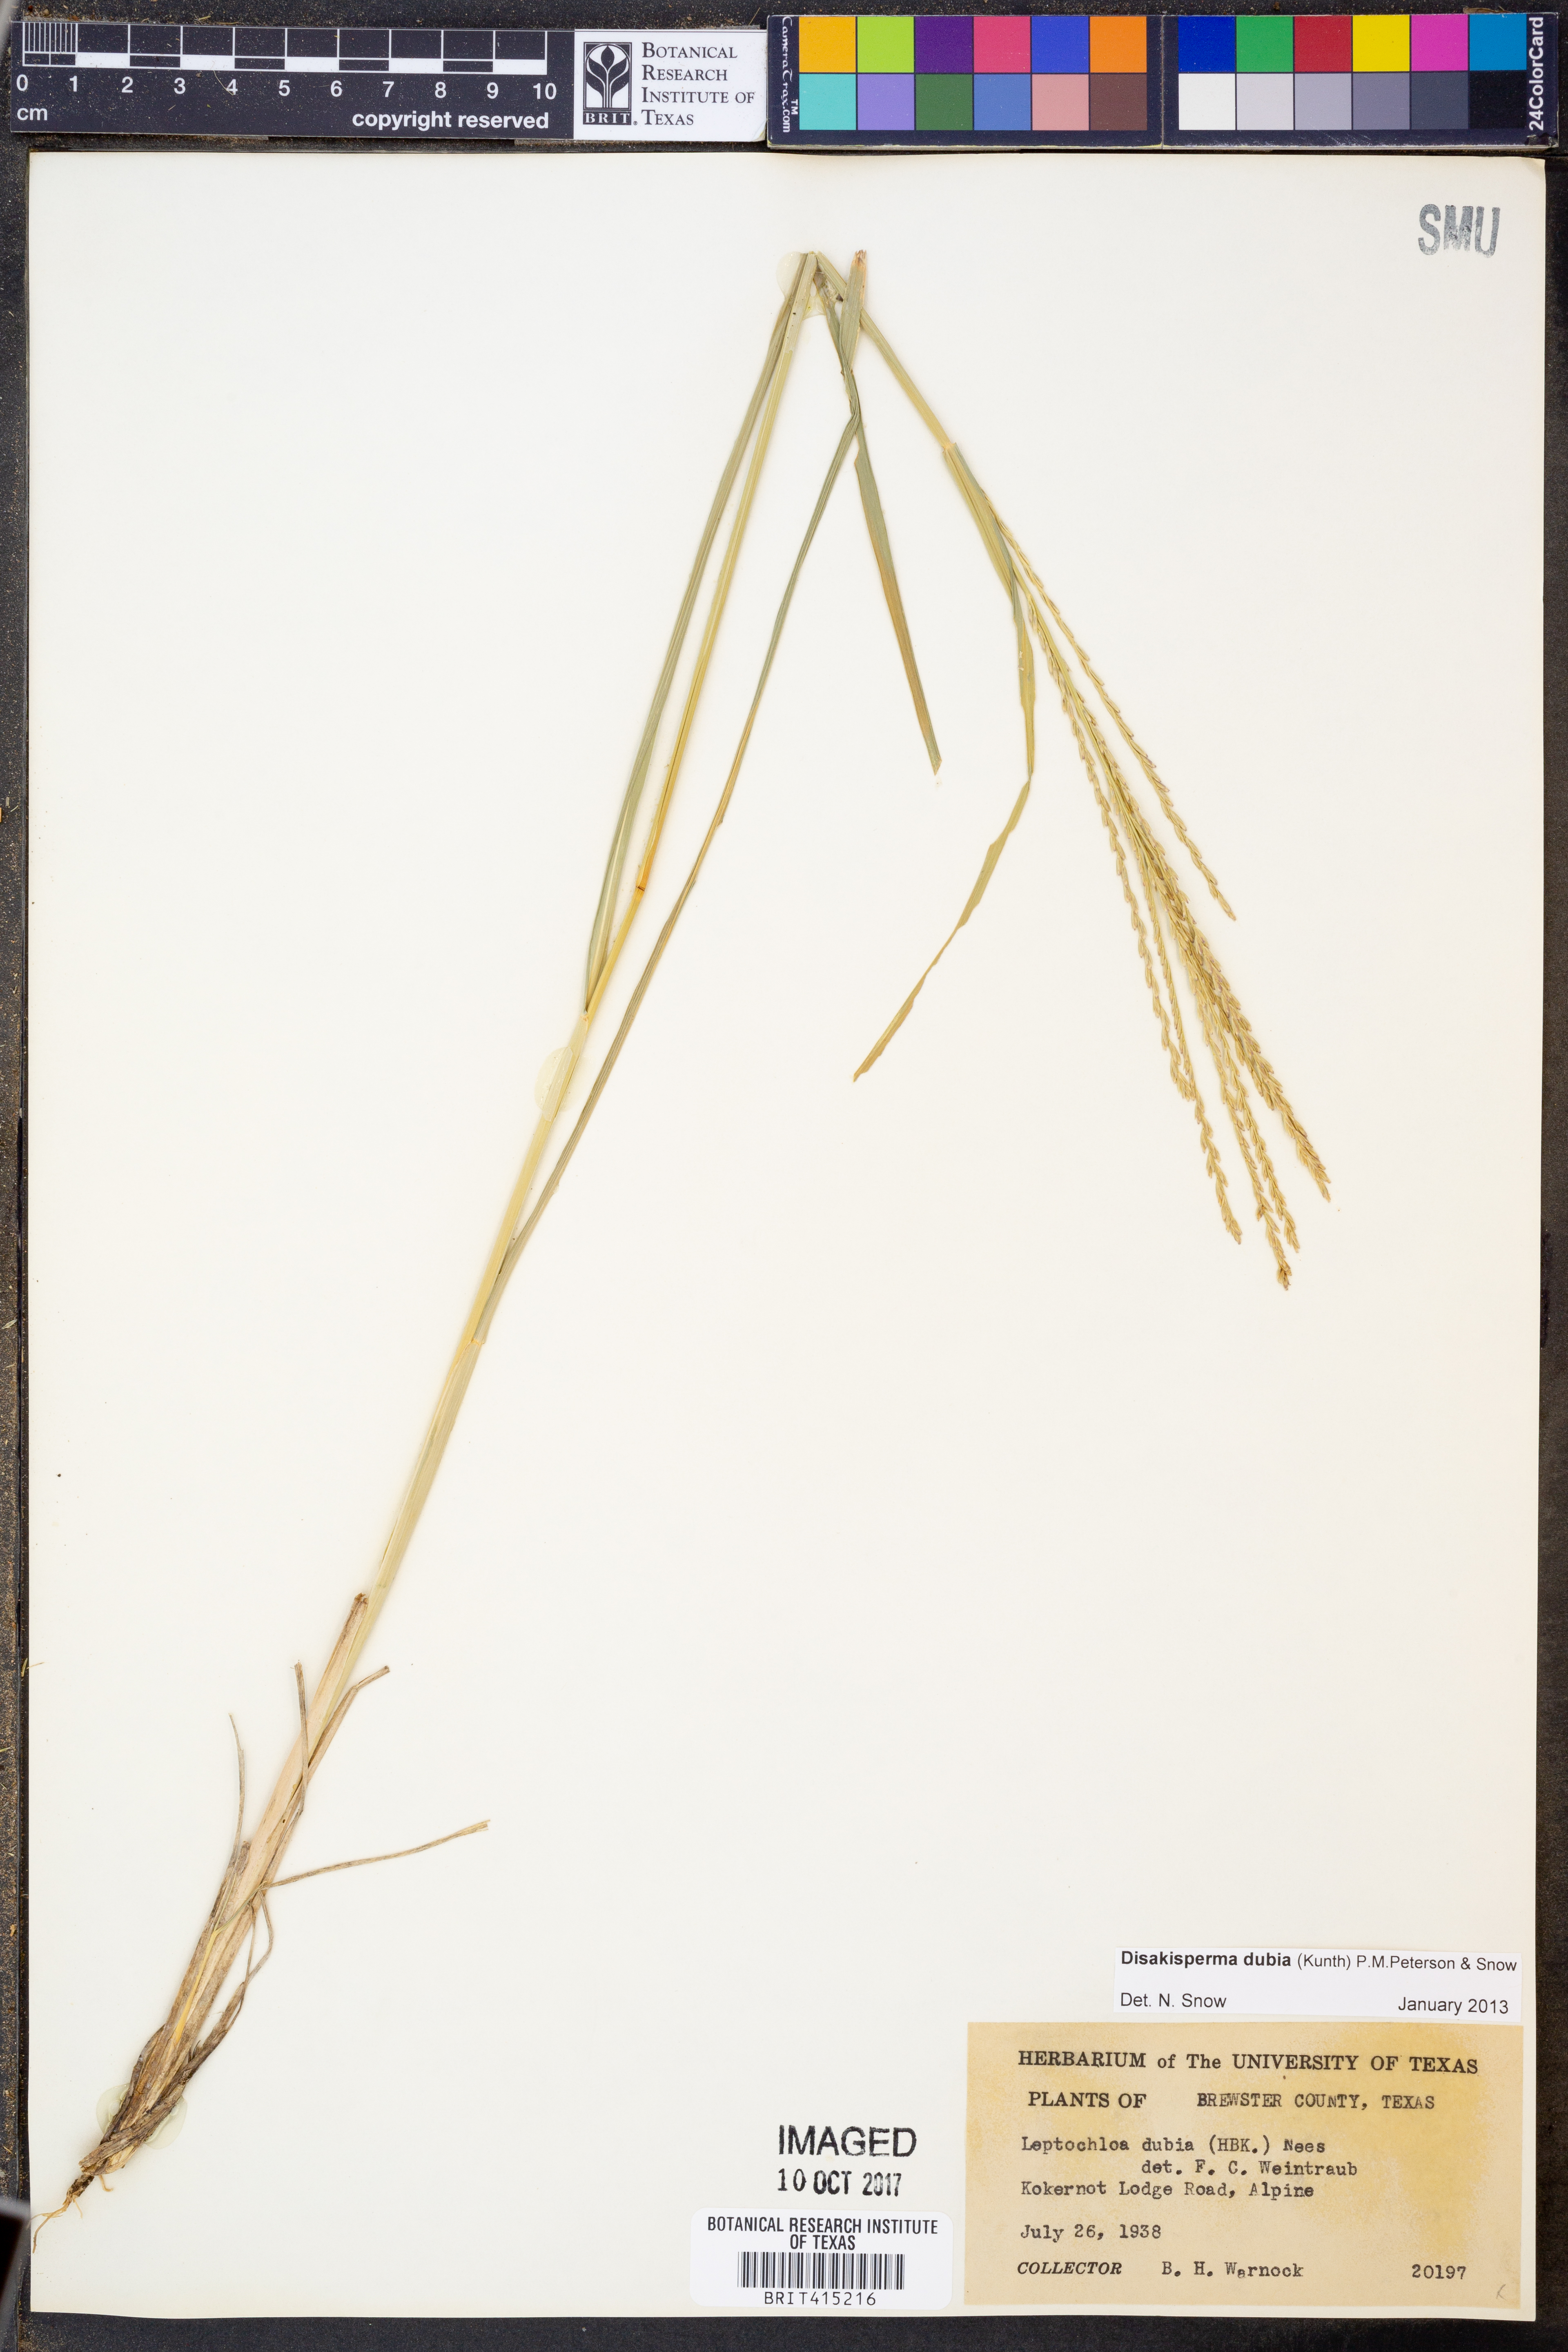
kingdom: Plantae
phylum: Tracheophyta
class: Liliopsida
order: Poales
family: Poaceae
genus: Disakisperma
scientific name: Disakisperma dubium
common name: Green sprangletop
